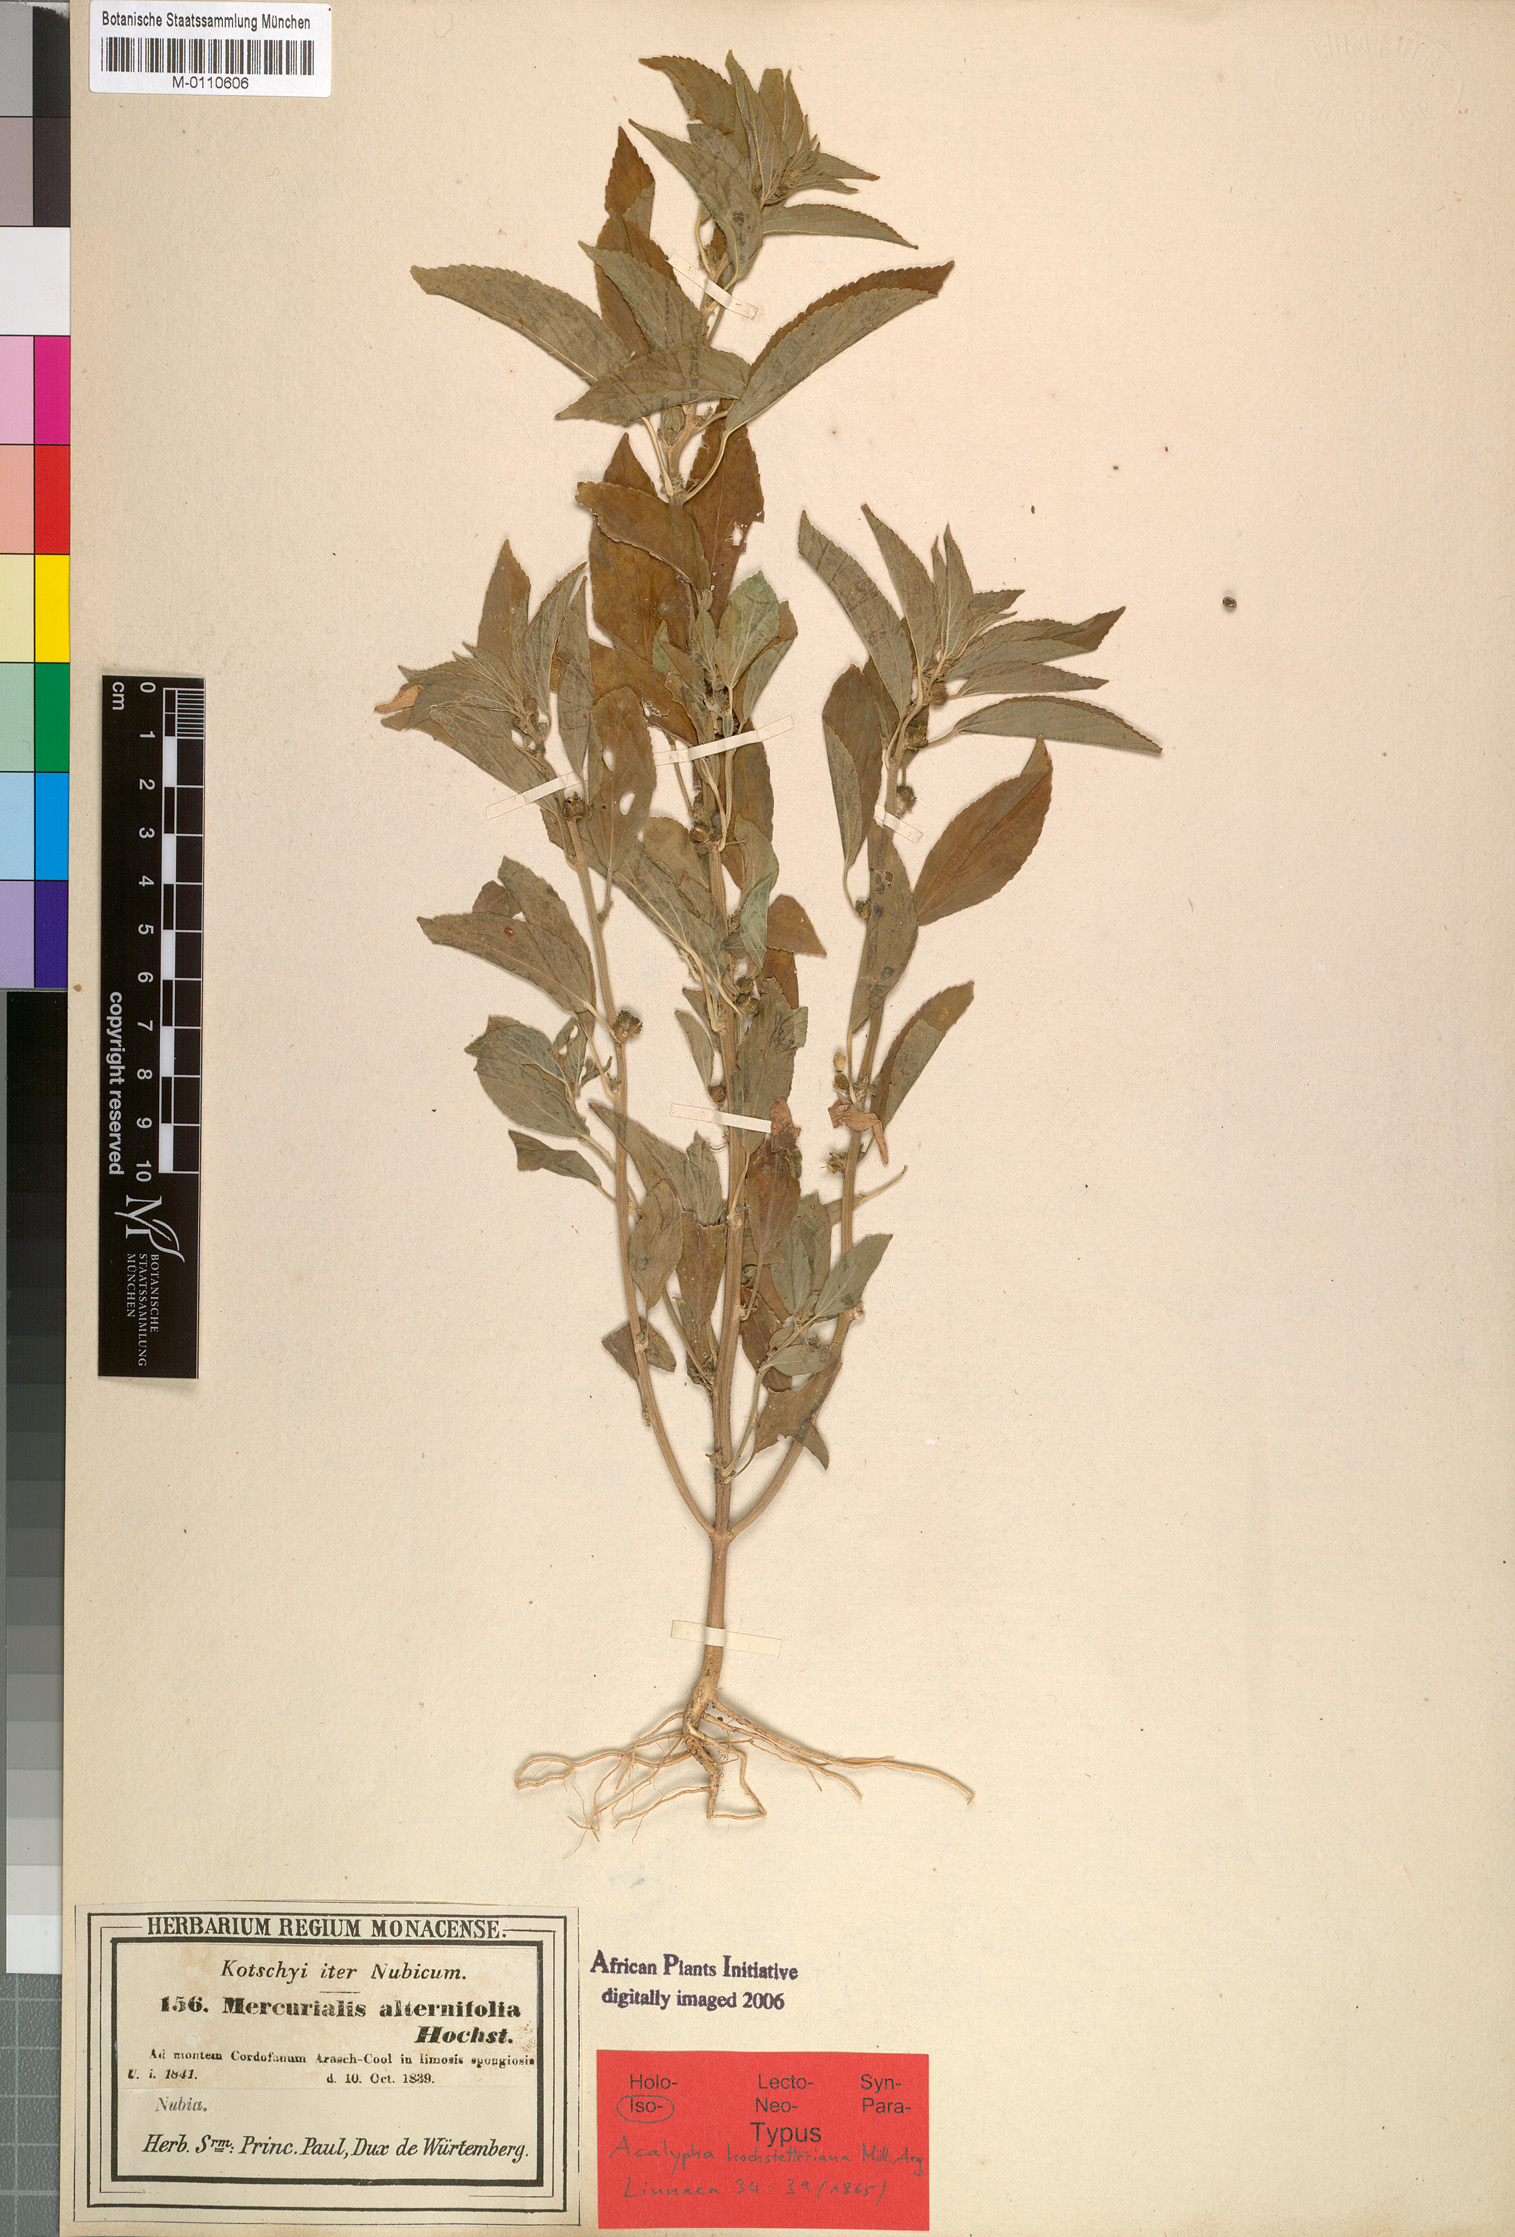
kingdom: Plantae
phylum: Tracheophyta
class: Magnoliopsida
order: Malpighiales
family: Euphorbiaceae
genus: Acalypha
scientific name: Acalypha hochstetteriana
